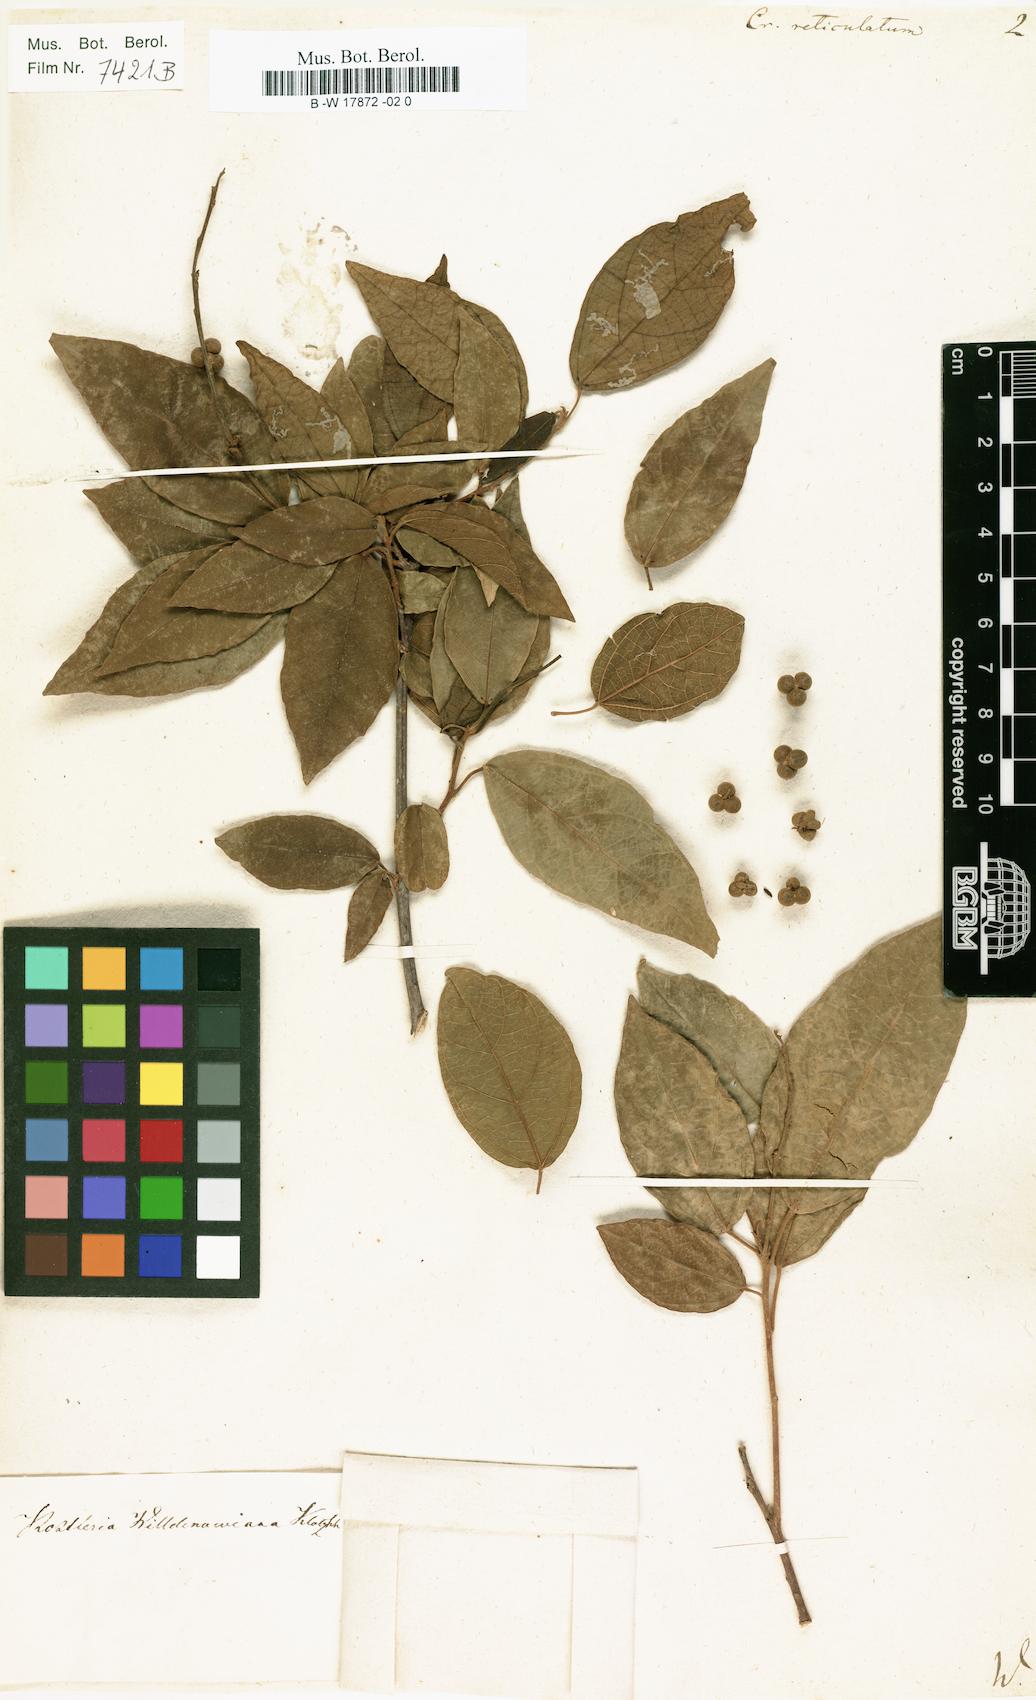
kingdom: Plantae
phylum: Tracheophyta
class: Magnoliopsida
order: Malpighiales
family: Euphorbiaceae
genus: Croton
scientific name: Croton reticulatus
